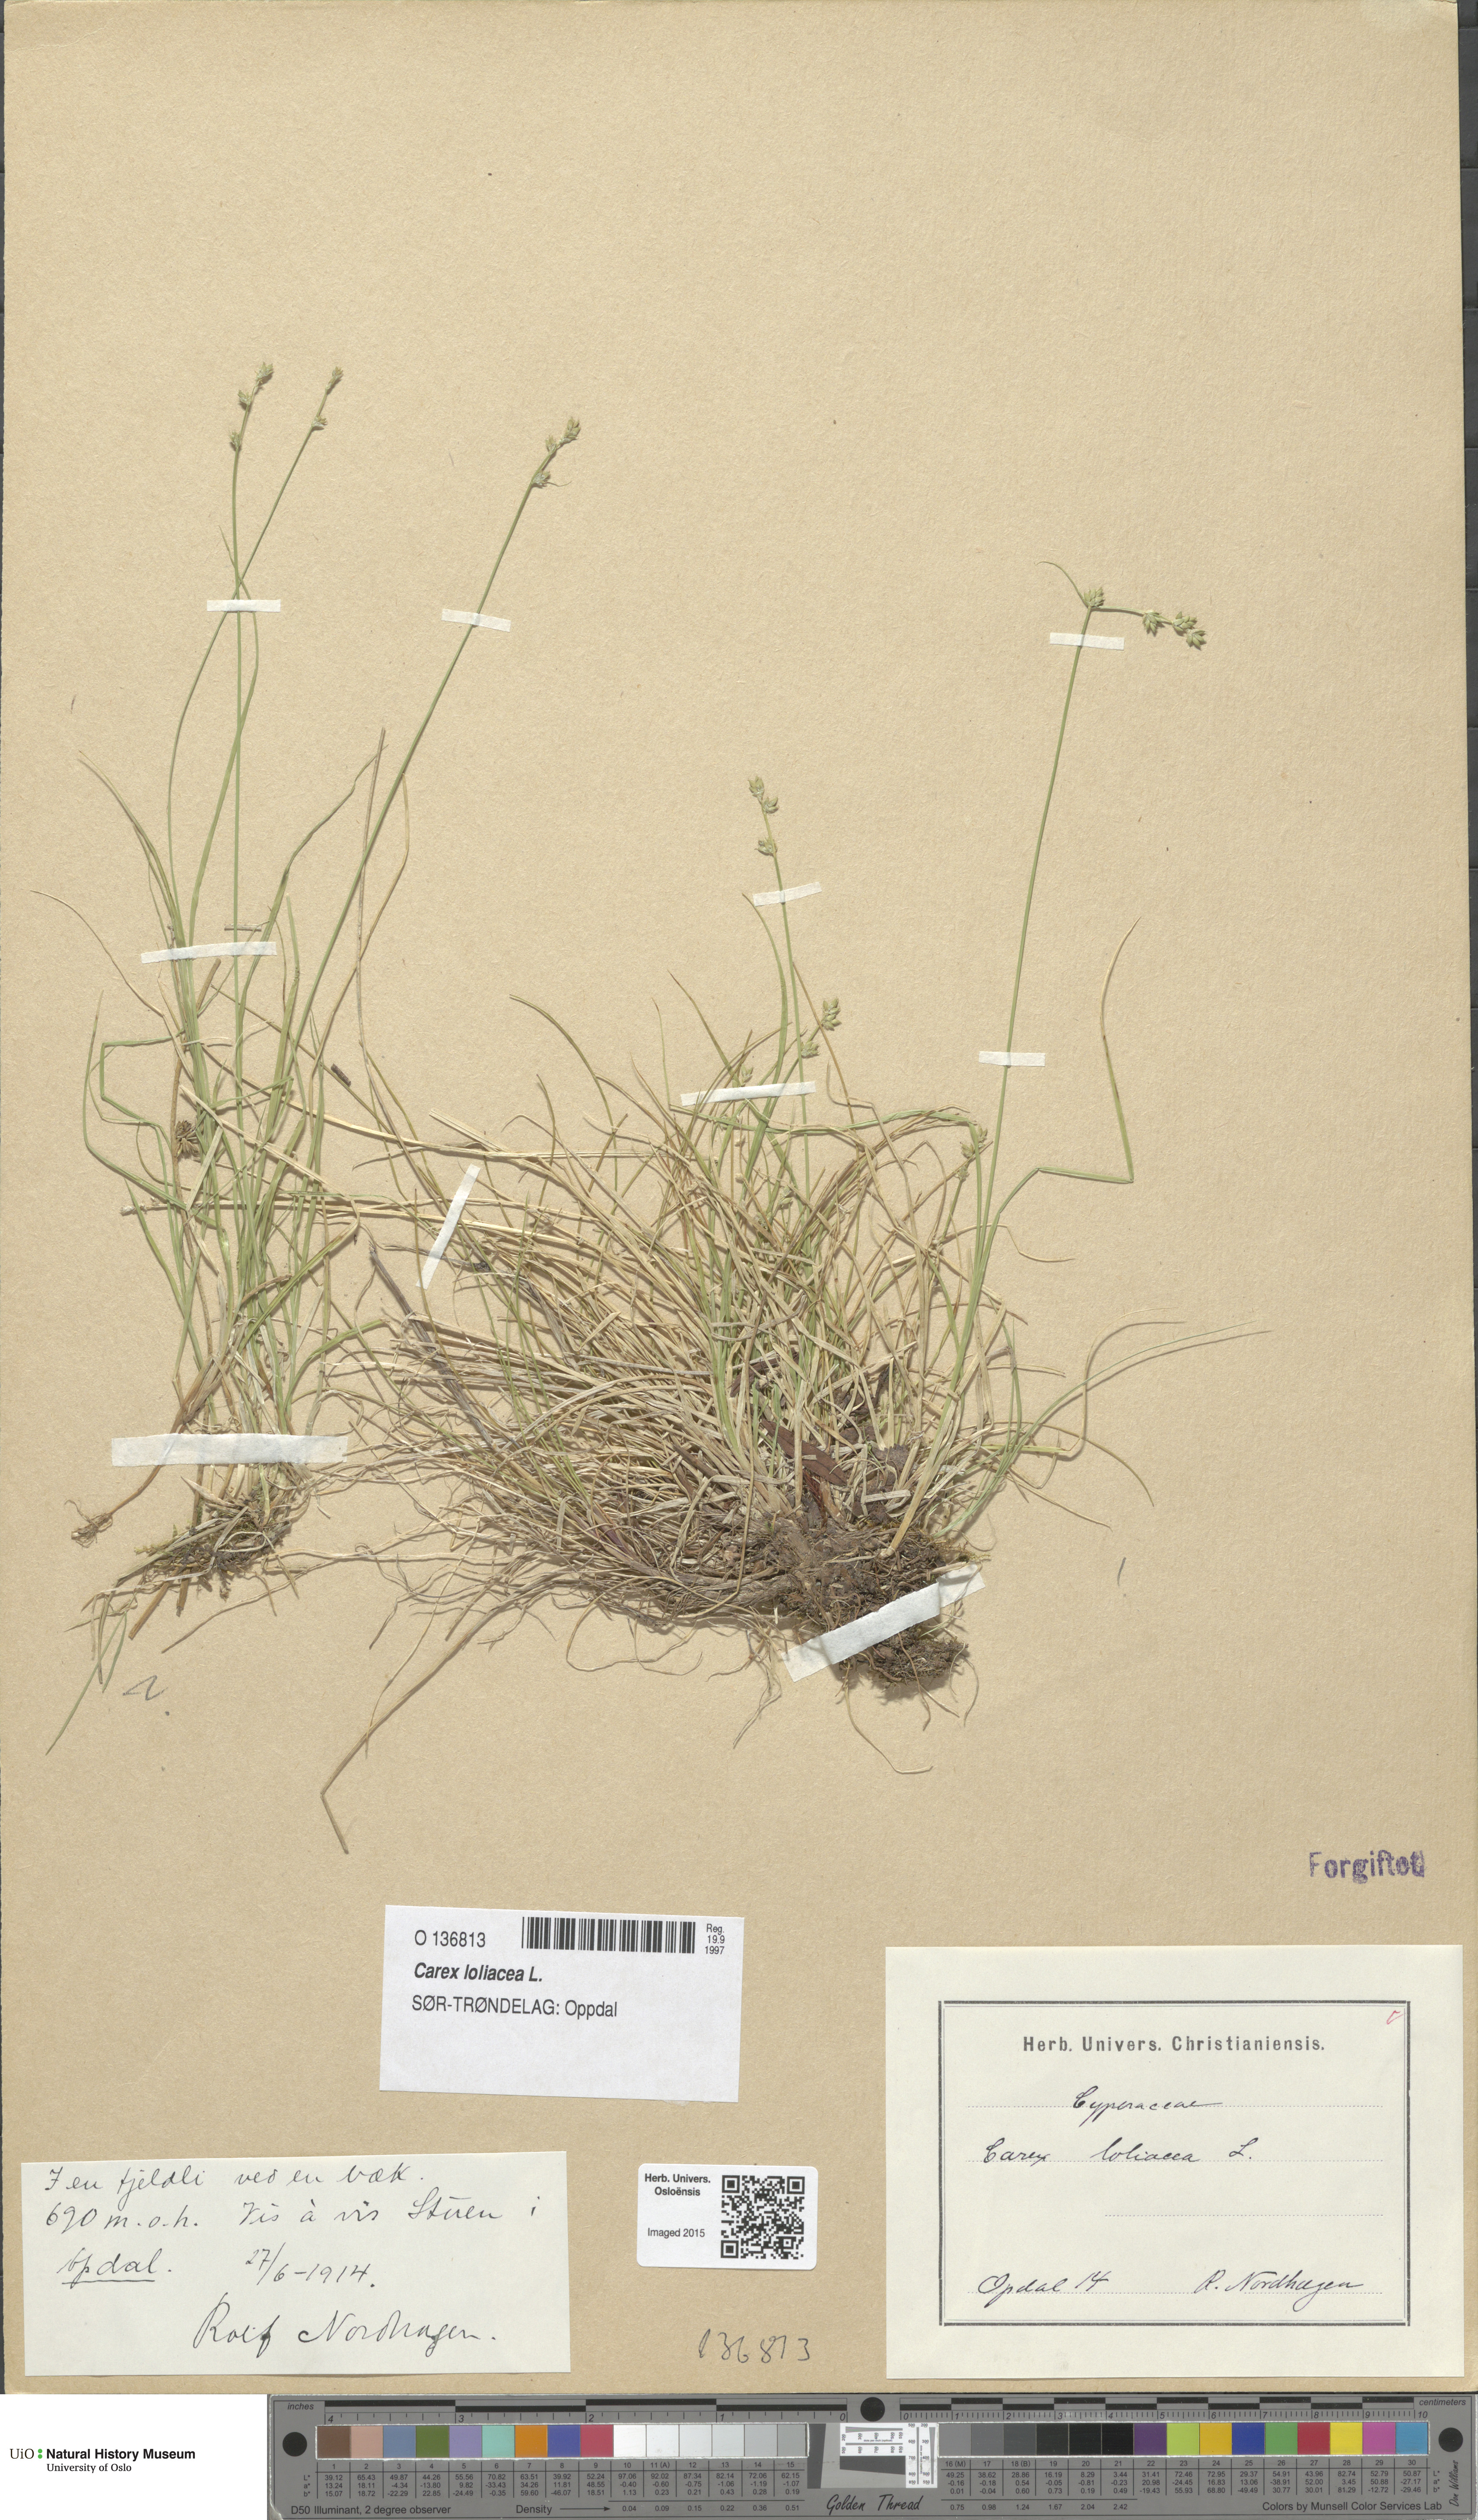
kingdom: Plantae
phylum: Tracheophyta
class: Liliopsida
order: Poales
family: Cyperaceae
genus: Carex
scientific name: Carex loliacea
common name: Ryegrass sedge
